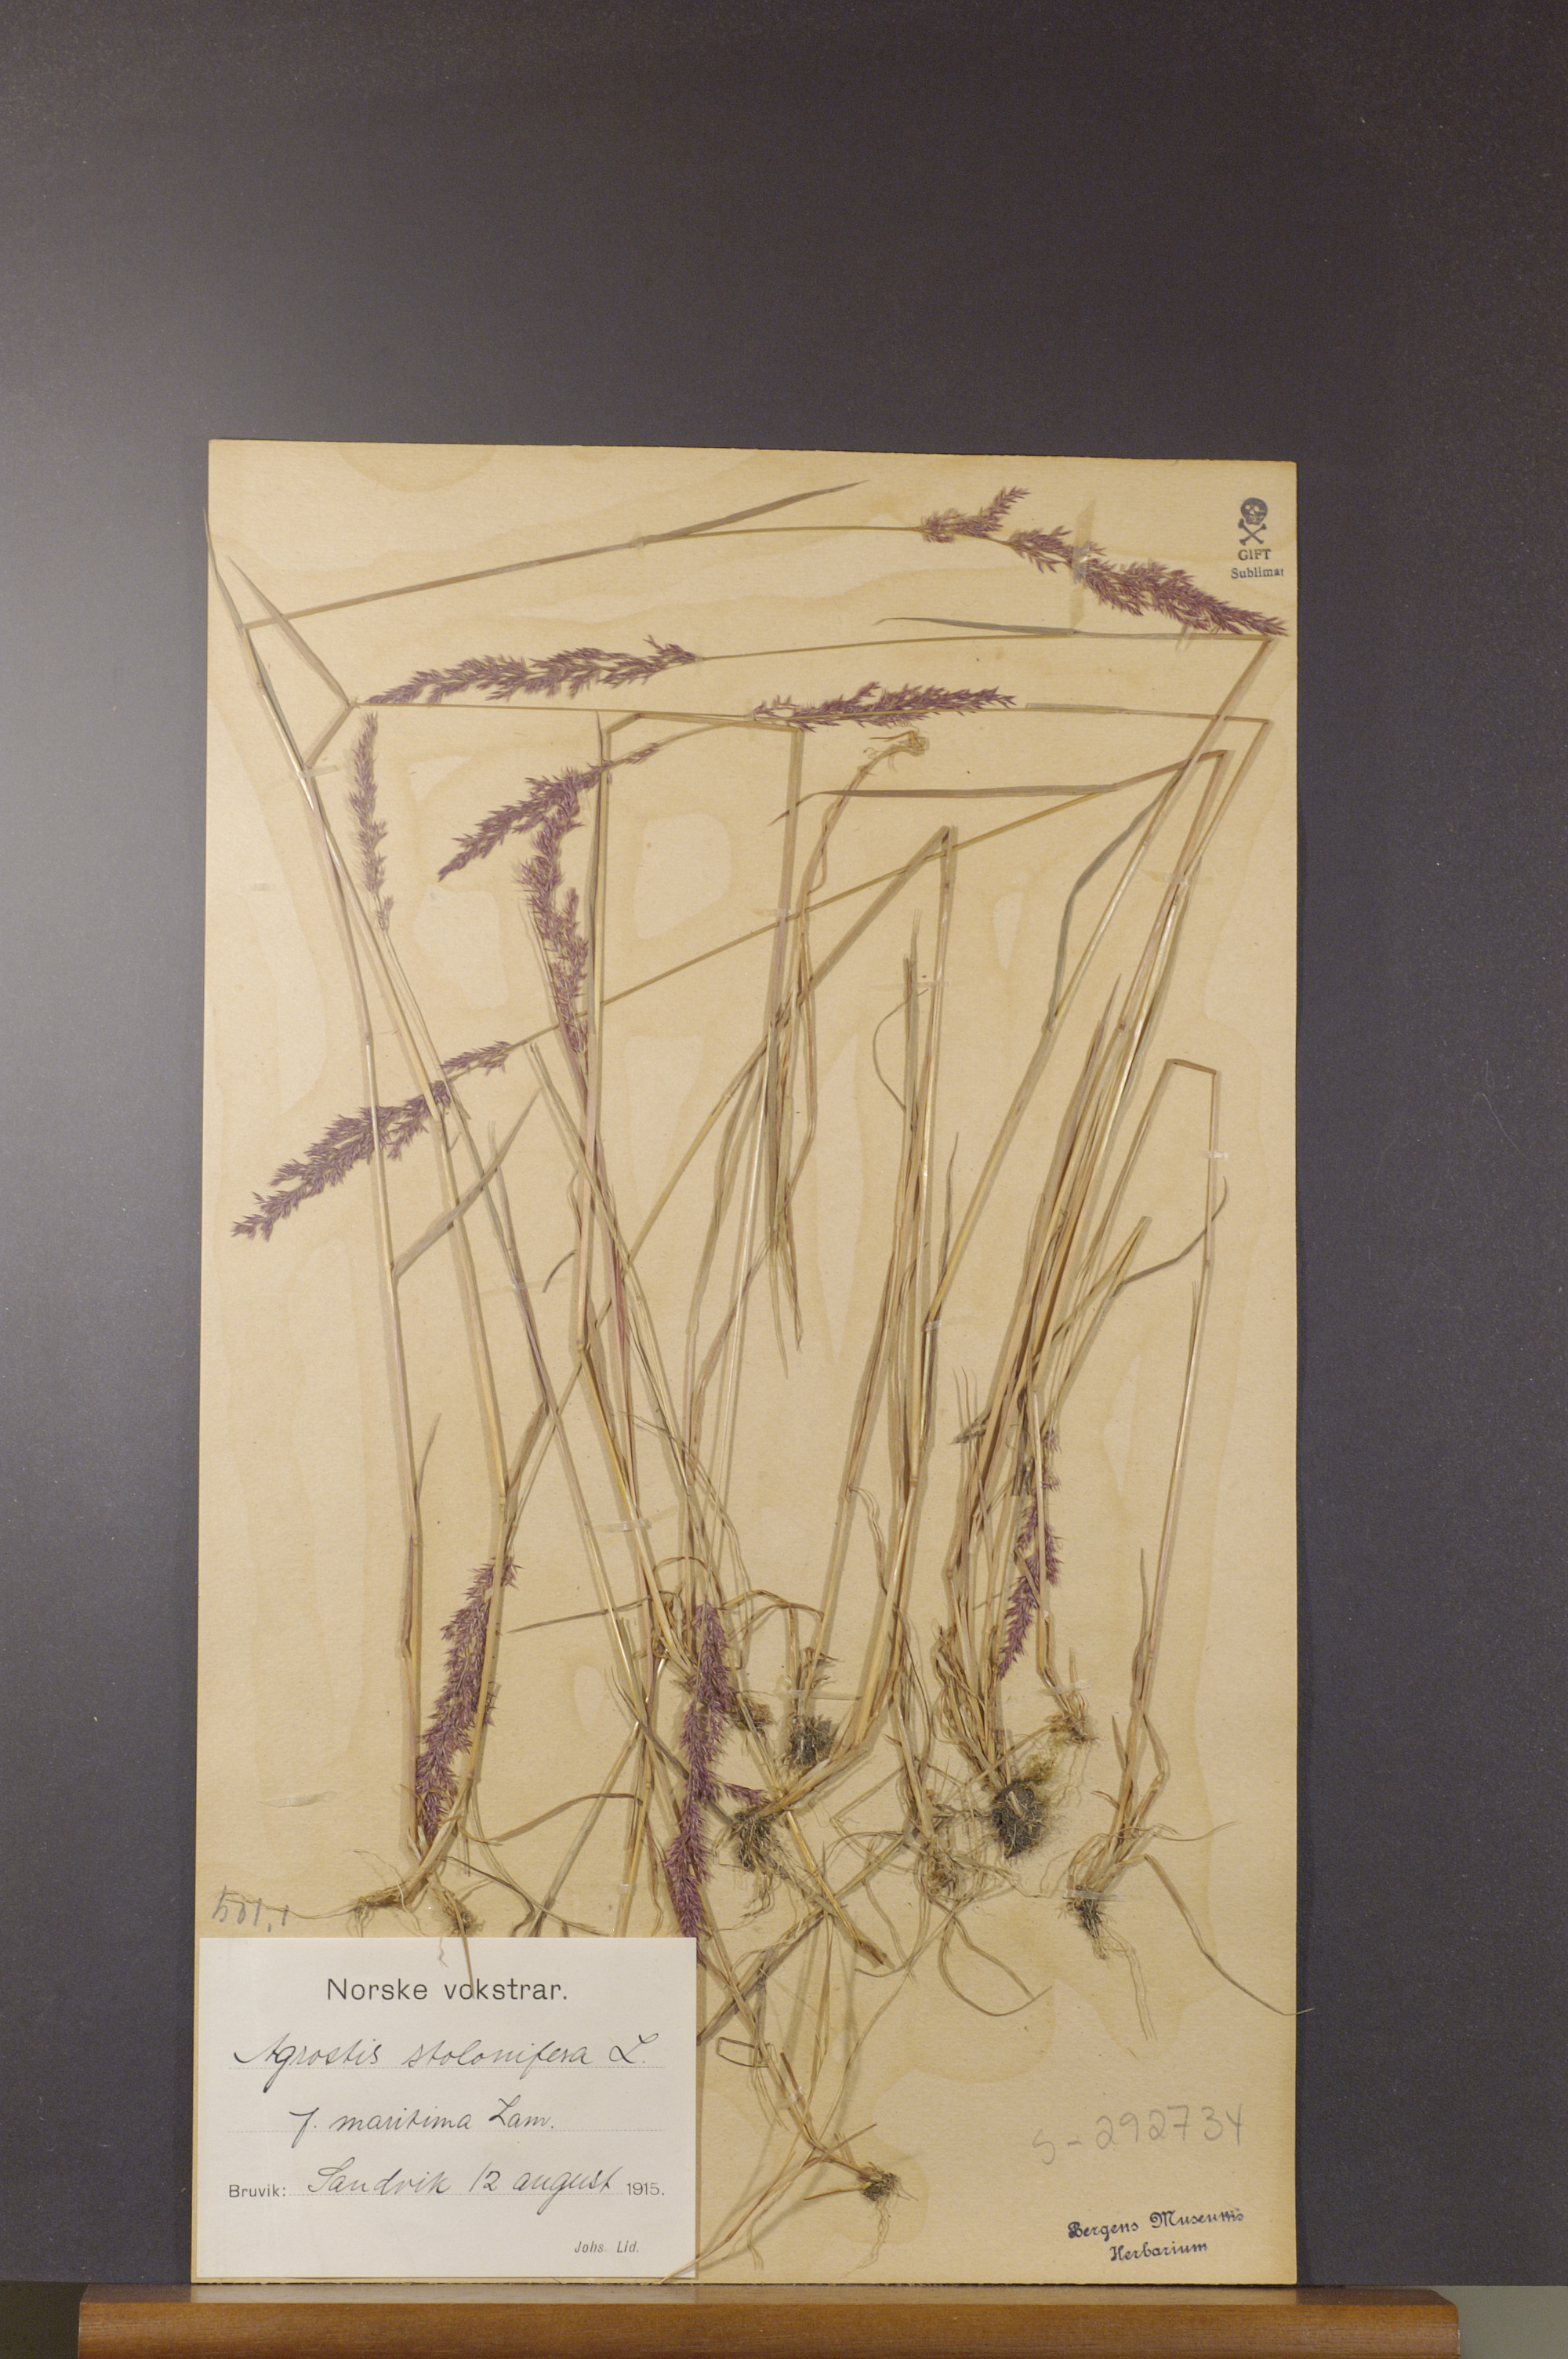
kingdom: Plantae
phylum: Tracheophyta
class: Liliopsida
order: Poales
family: Poaceae
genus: Agrostis
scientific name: Agrostis stolonifera
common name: Creeping bentgrass
